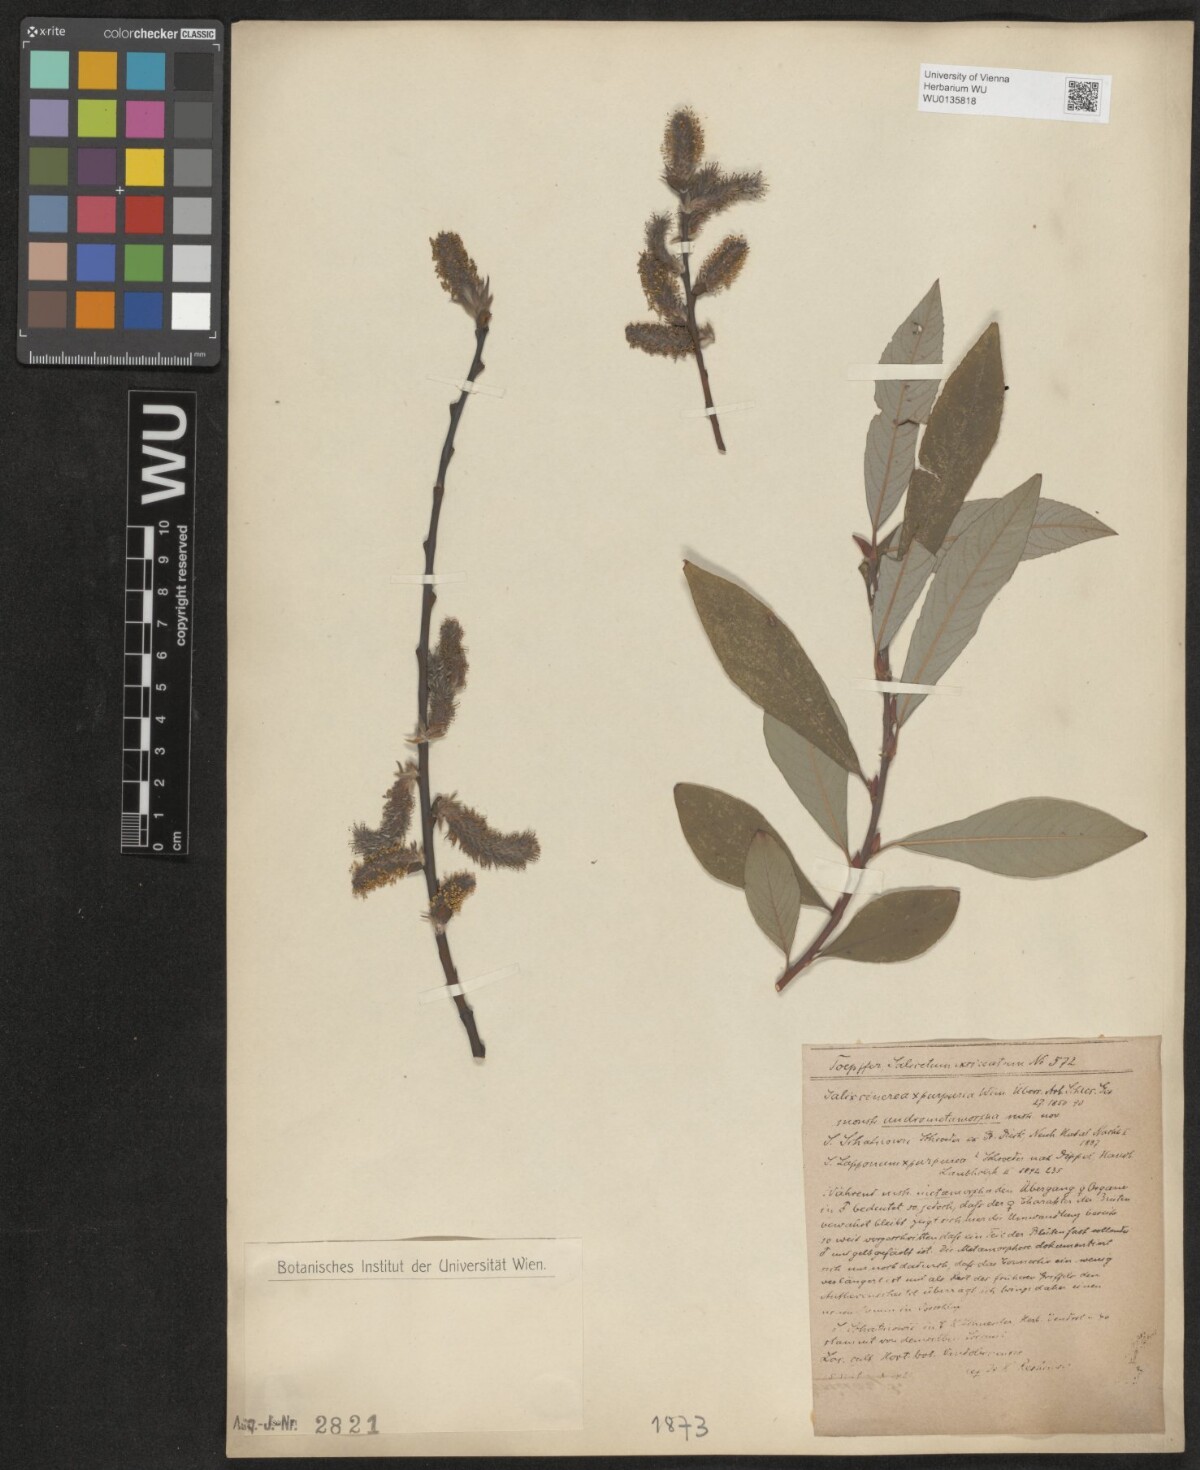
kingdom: Plantae
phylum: Tracheophyta
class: Magnoliopsida
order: Malpighiales
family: Salicaceae
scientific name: Salicaceae
